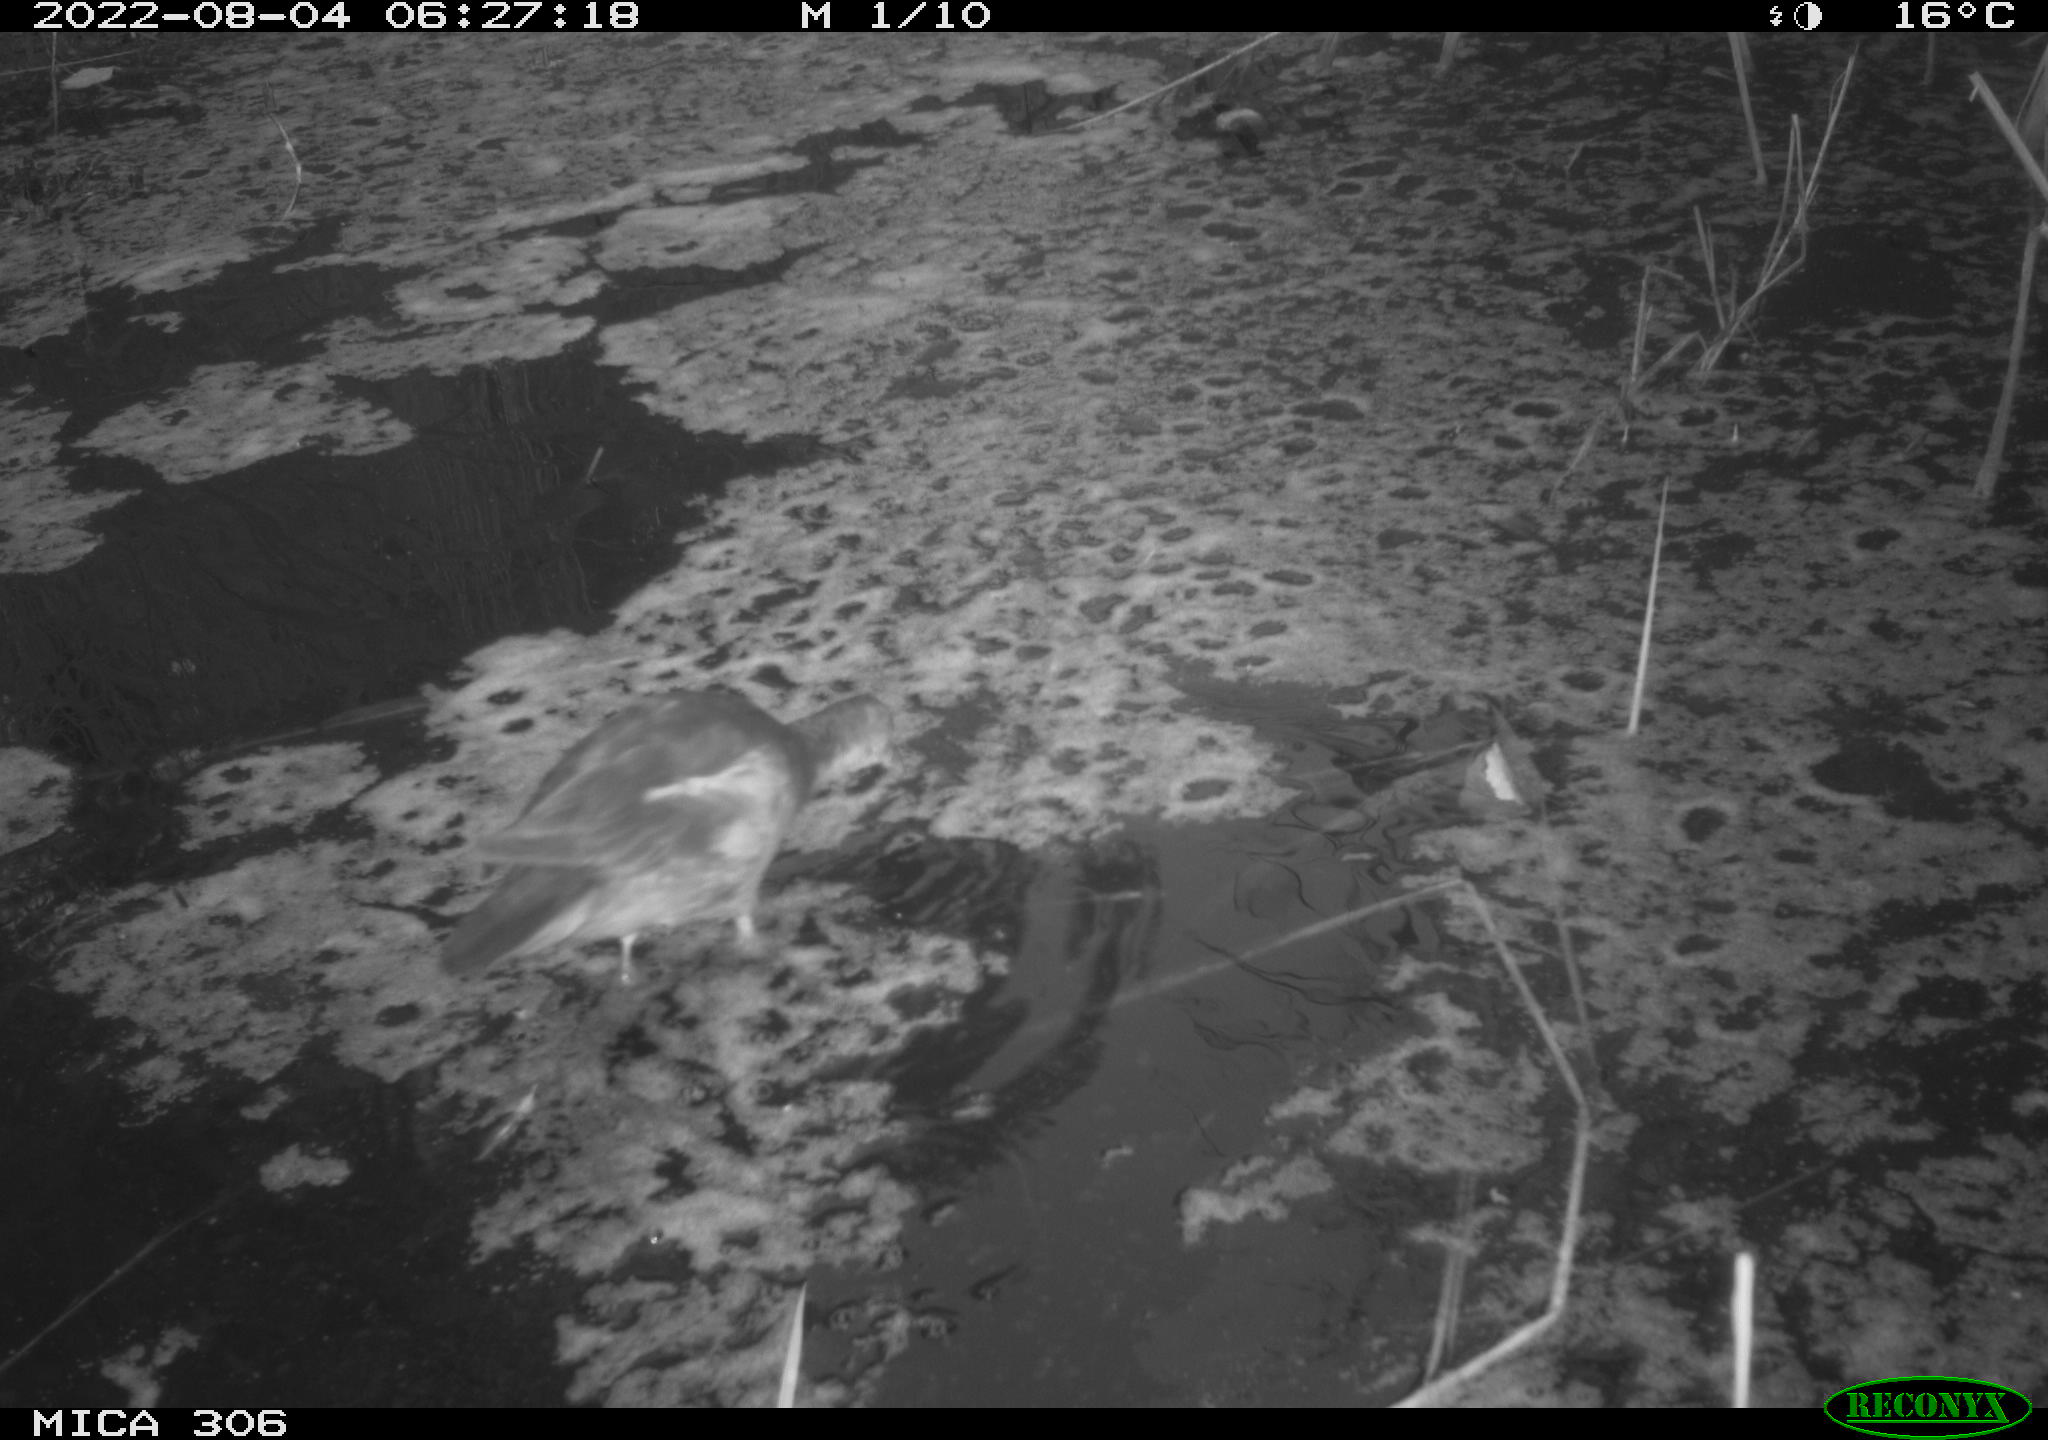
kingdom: Animalia
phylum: Chordata
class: Aves
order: Gruiformes
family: Rallidae
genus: Gallinula
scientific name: Gallinula chloropus
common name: Common moorhen
